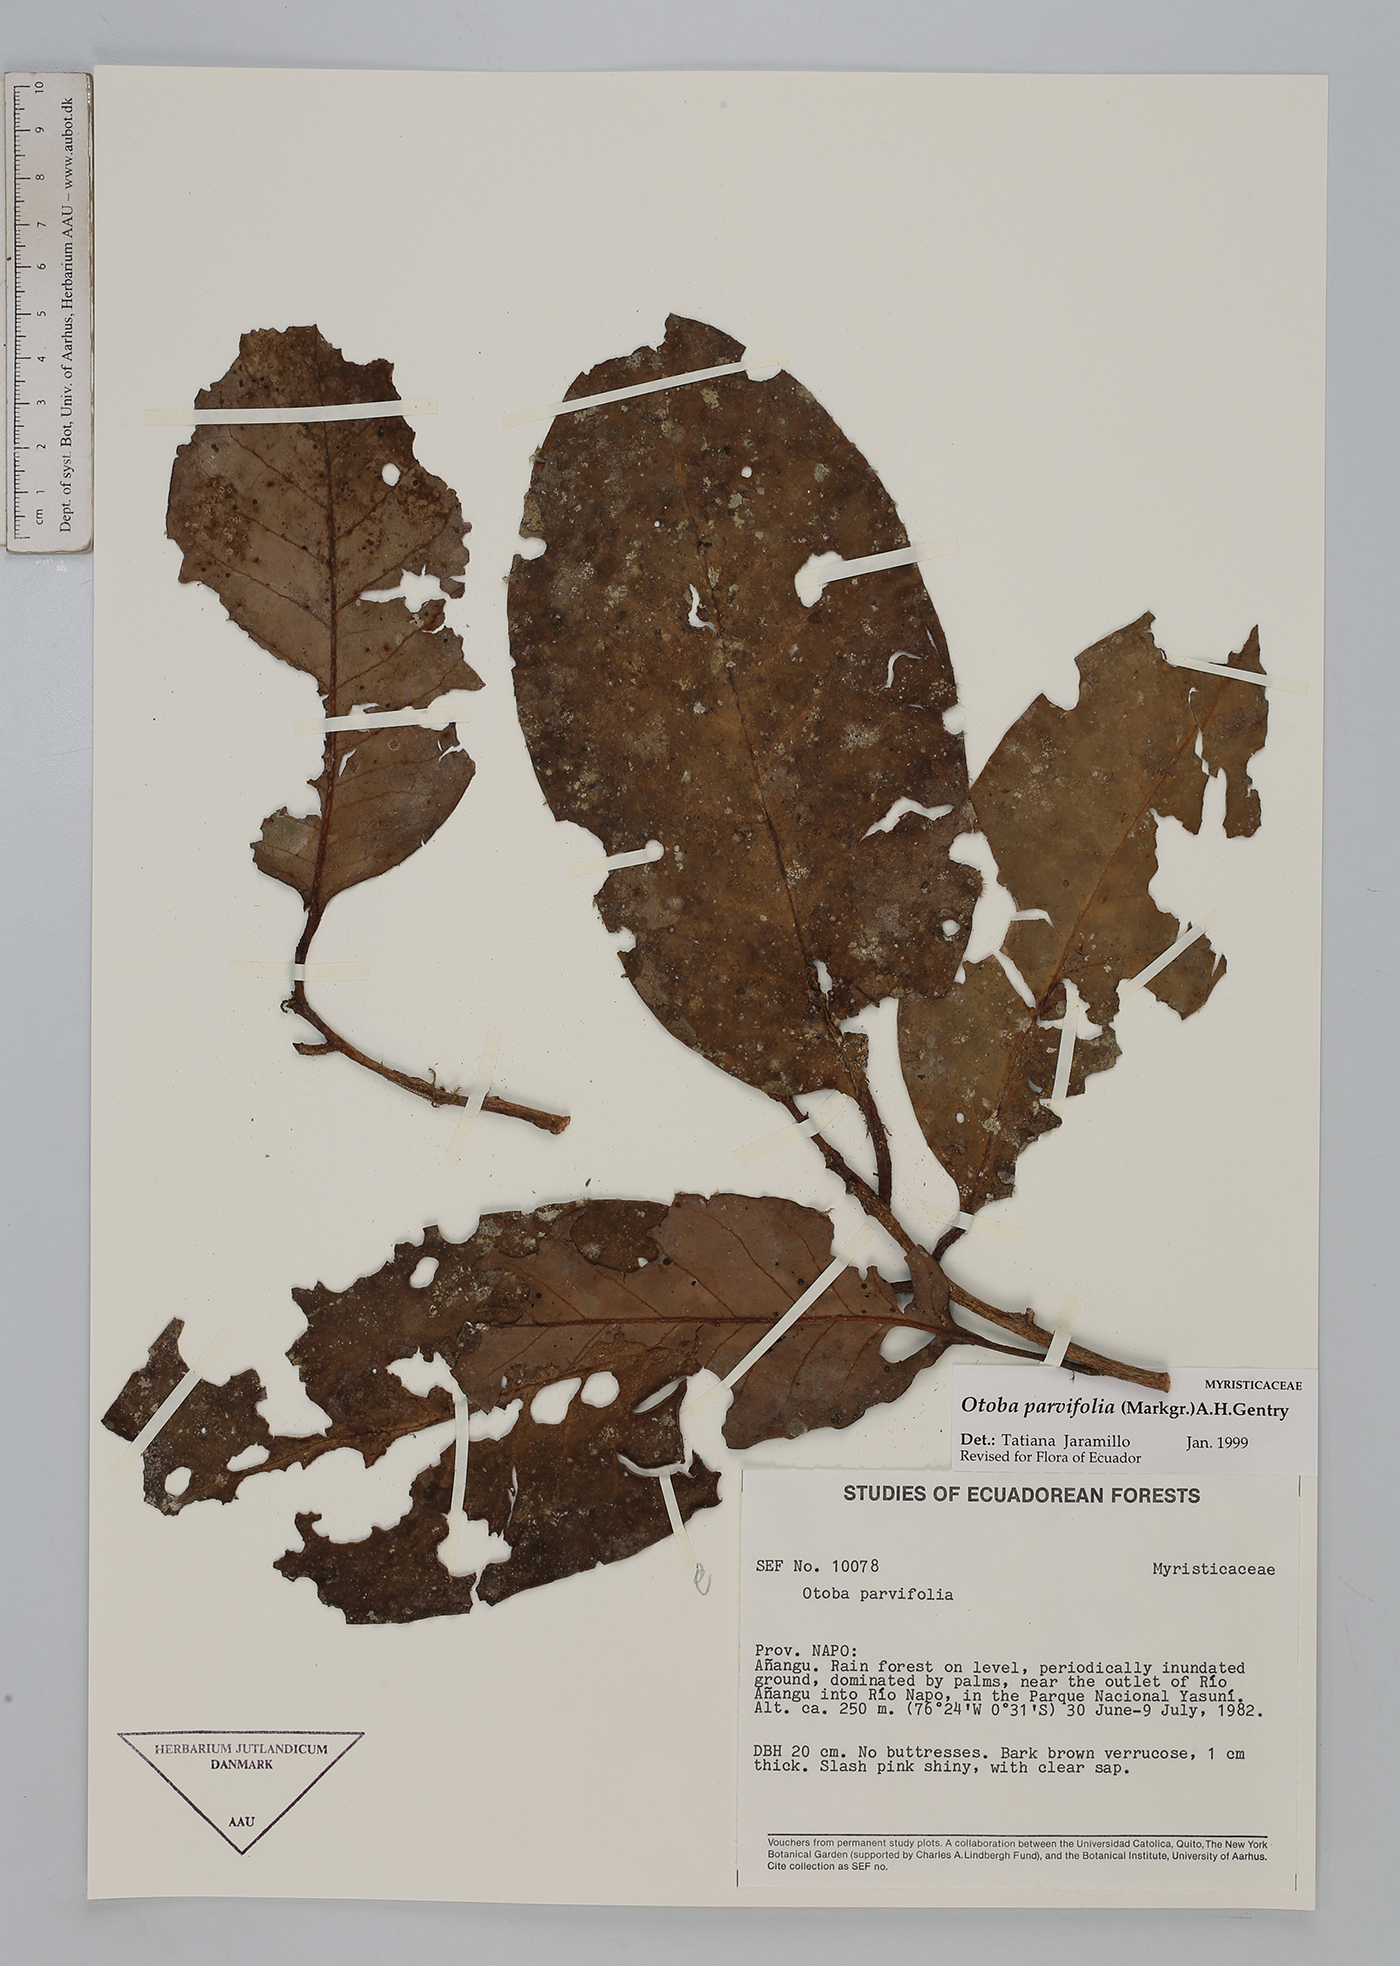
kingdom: Plantae
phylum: Tracheophyta
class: Magnoliopsida
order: Magnoliales
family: Myristicaceae
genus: Otoba
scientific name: Otoba parvifolia
